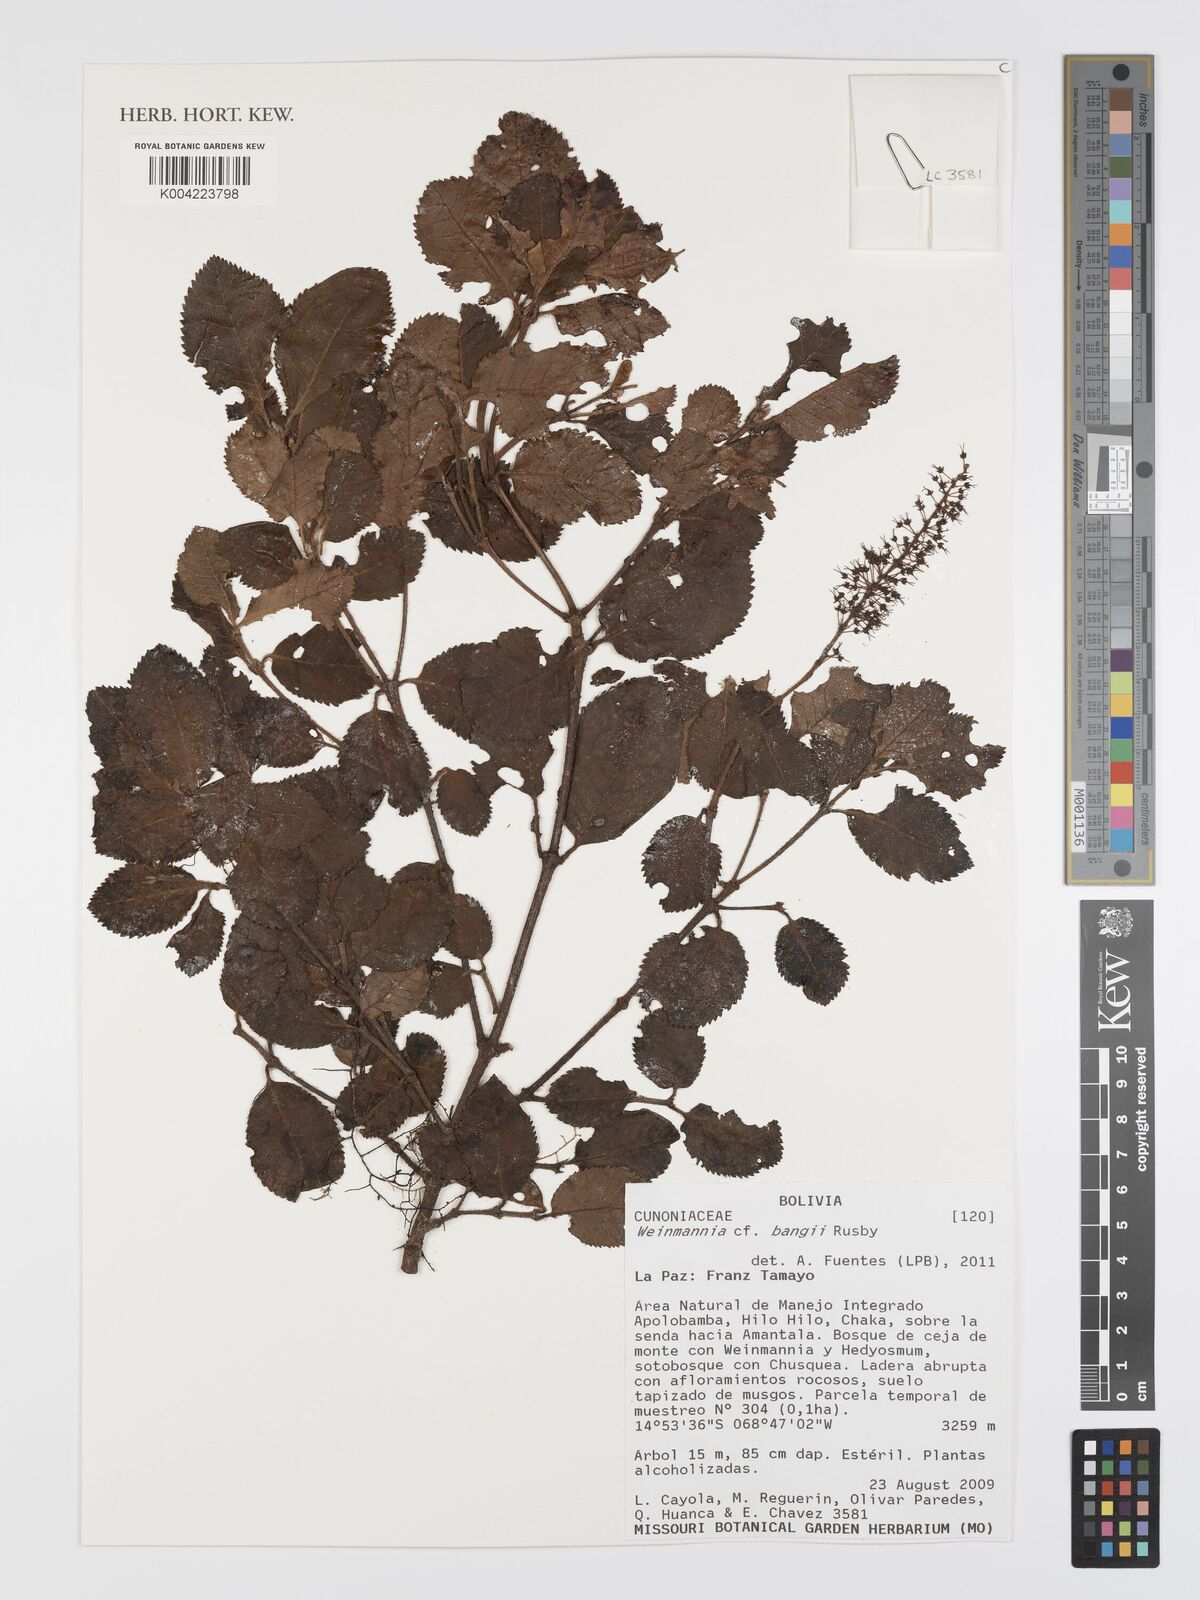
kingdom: Plantae
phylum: Tracheophyta
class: Magnoliopsida
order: Oxalidales
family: Cunoniaceae
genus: Weinmannia
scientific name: Weinmannia bangii
